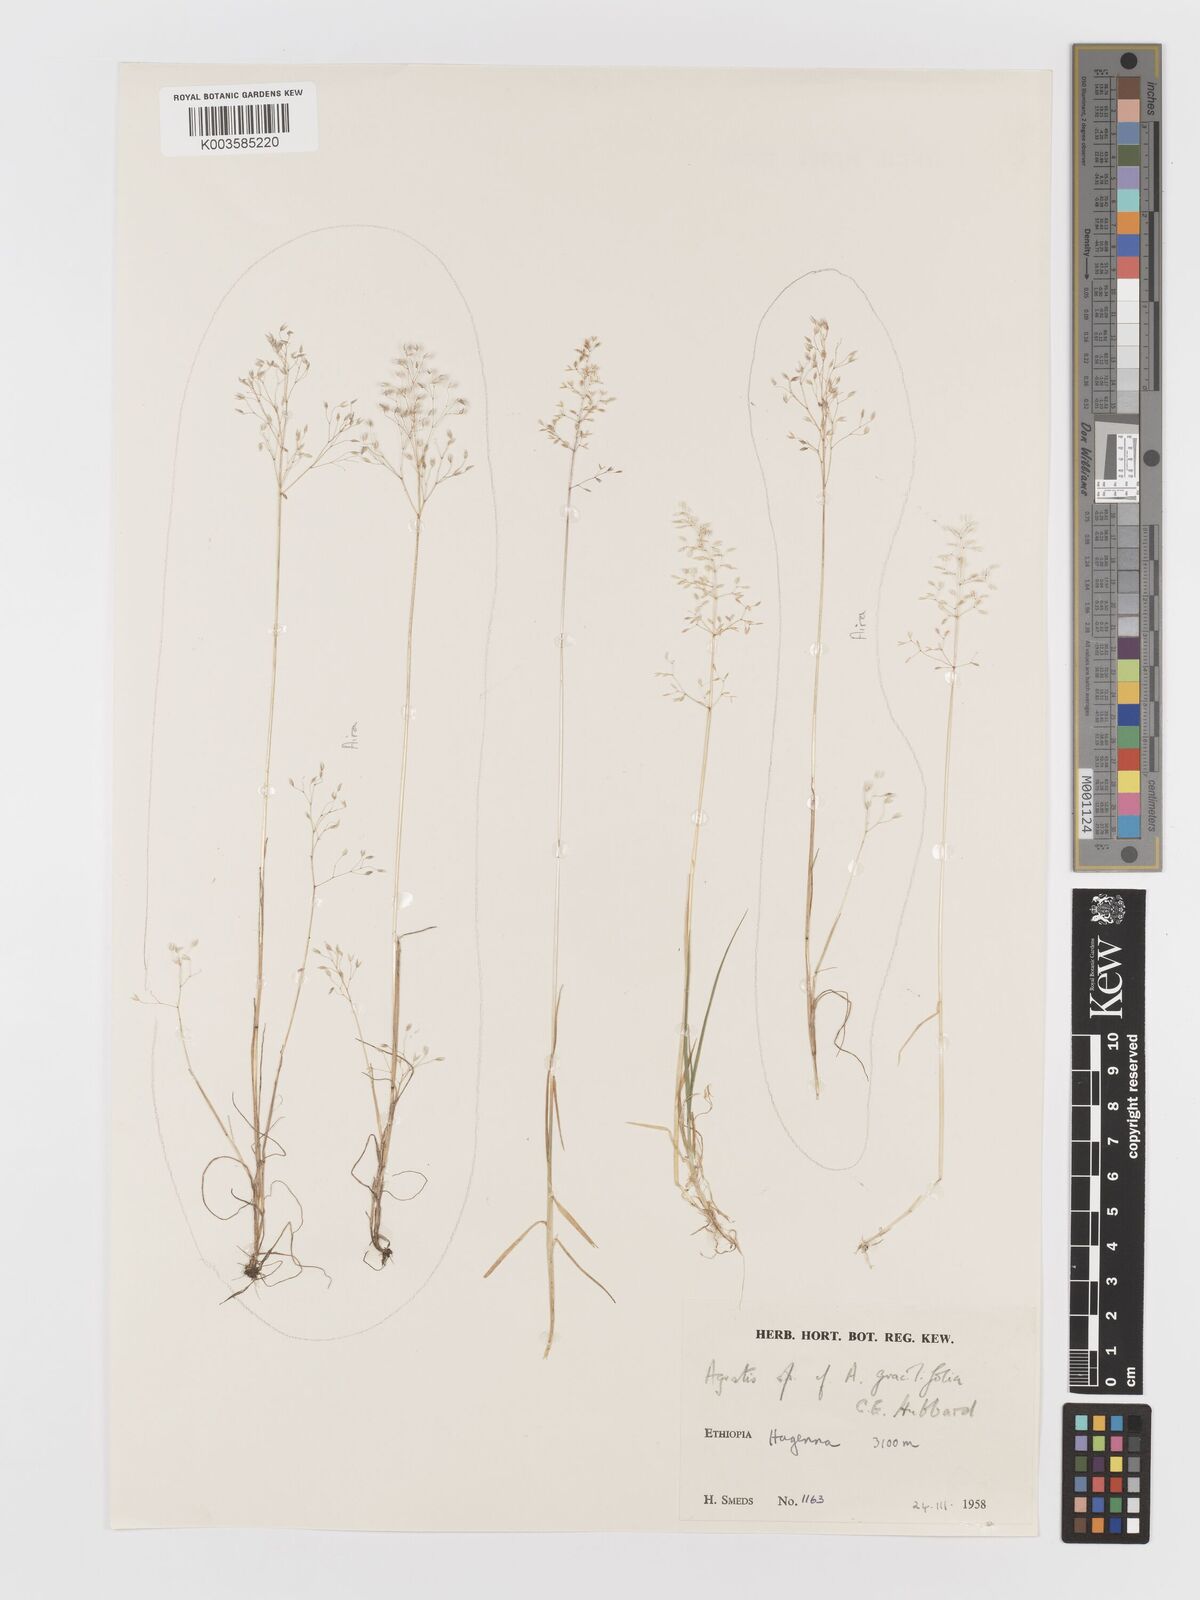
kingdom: Plantae
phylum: Tracheophyta
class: Liliopsida
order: Poales
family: Poaceae
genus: Aira
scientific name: Aira caryophyllea
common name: Silver hairgrass
